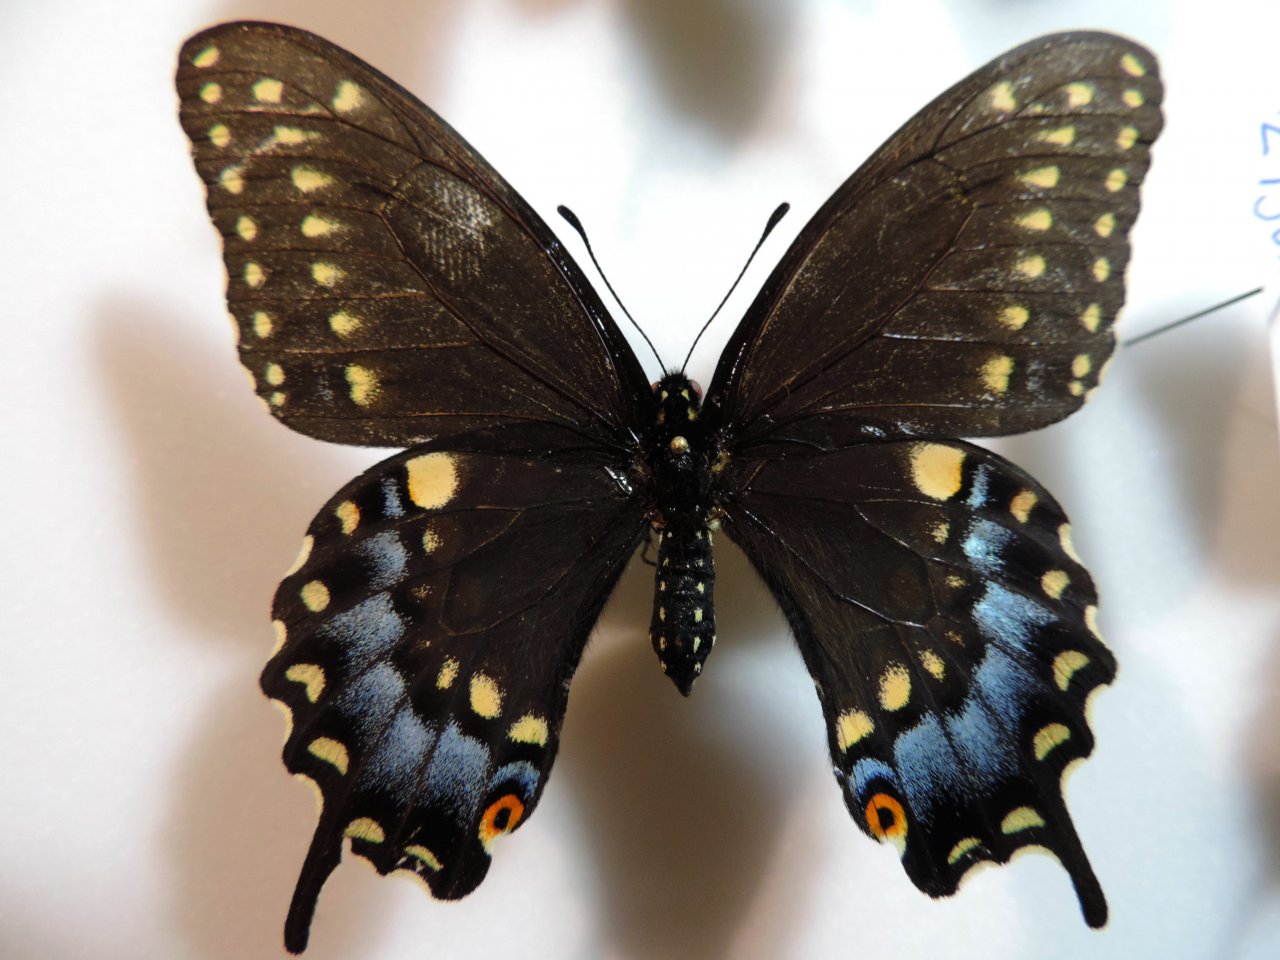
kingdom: Animalia
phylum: Arthropoda
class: Insecta
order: Lepidoptera
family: Papilionidae
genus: Papilio
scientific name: Papilio polyxenes
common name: Black Swallowtail
